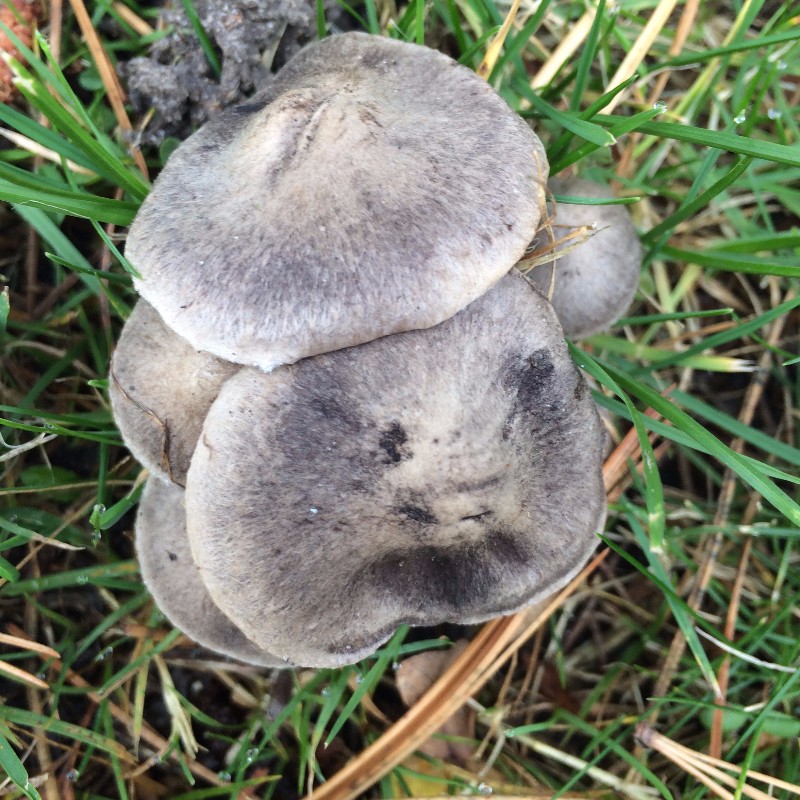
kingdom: Fungi
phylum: Basidiomycota
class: Agaricomycetes
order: Agaricales
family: Tricholomataceae
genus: Tricholoma
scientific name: Tricholoma terreum
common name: jordfarvet ridderhat
